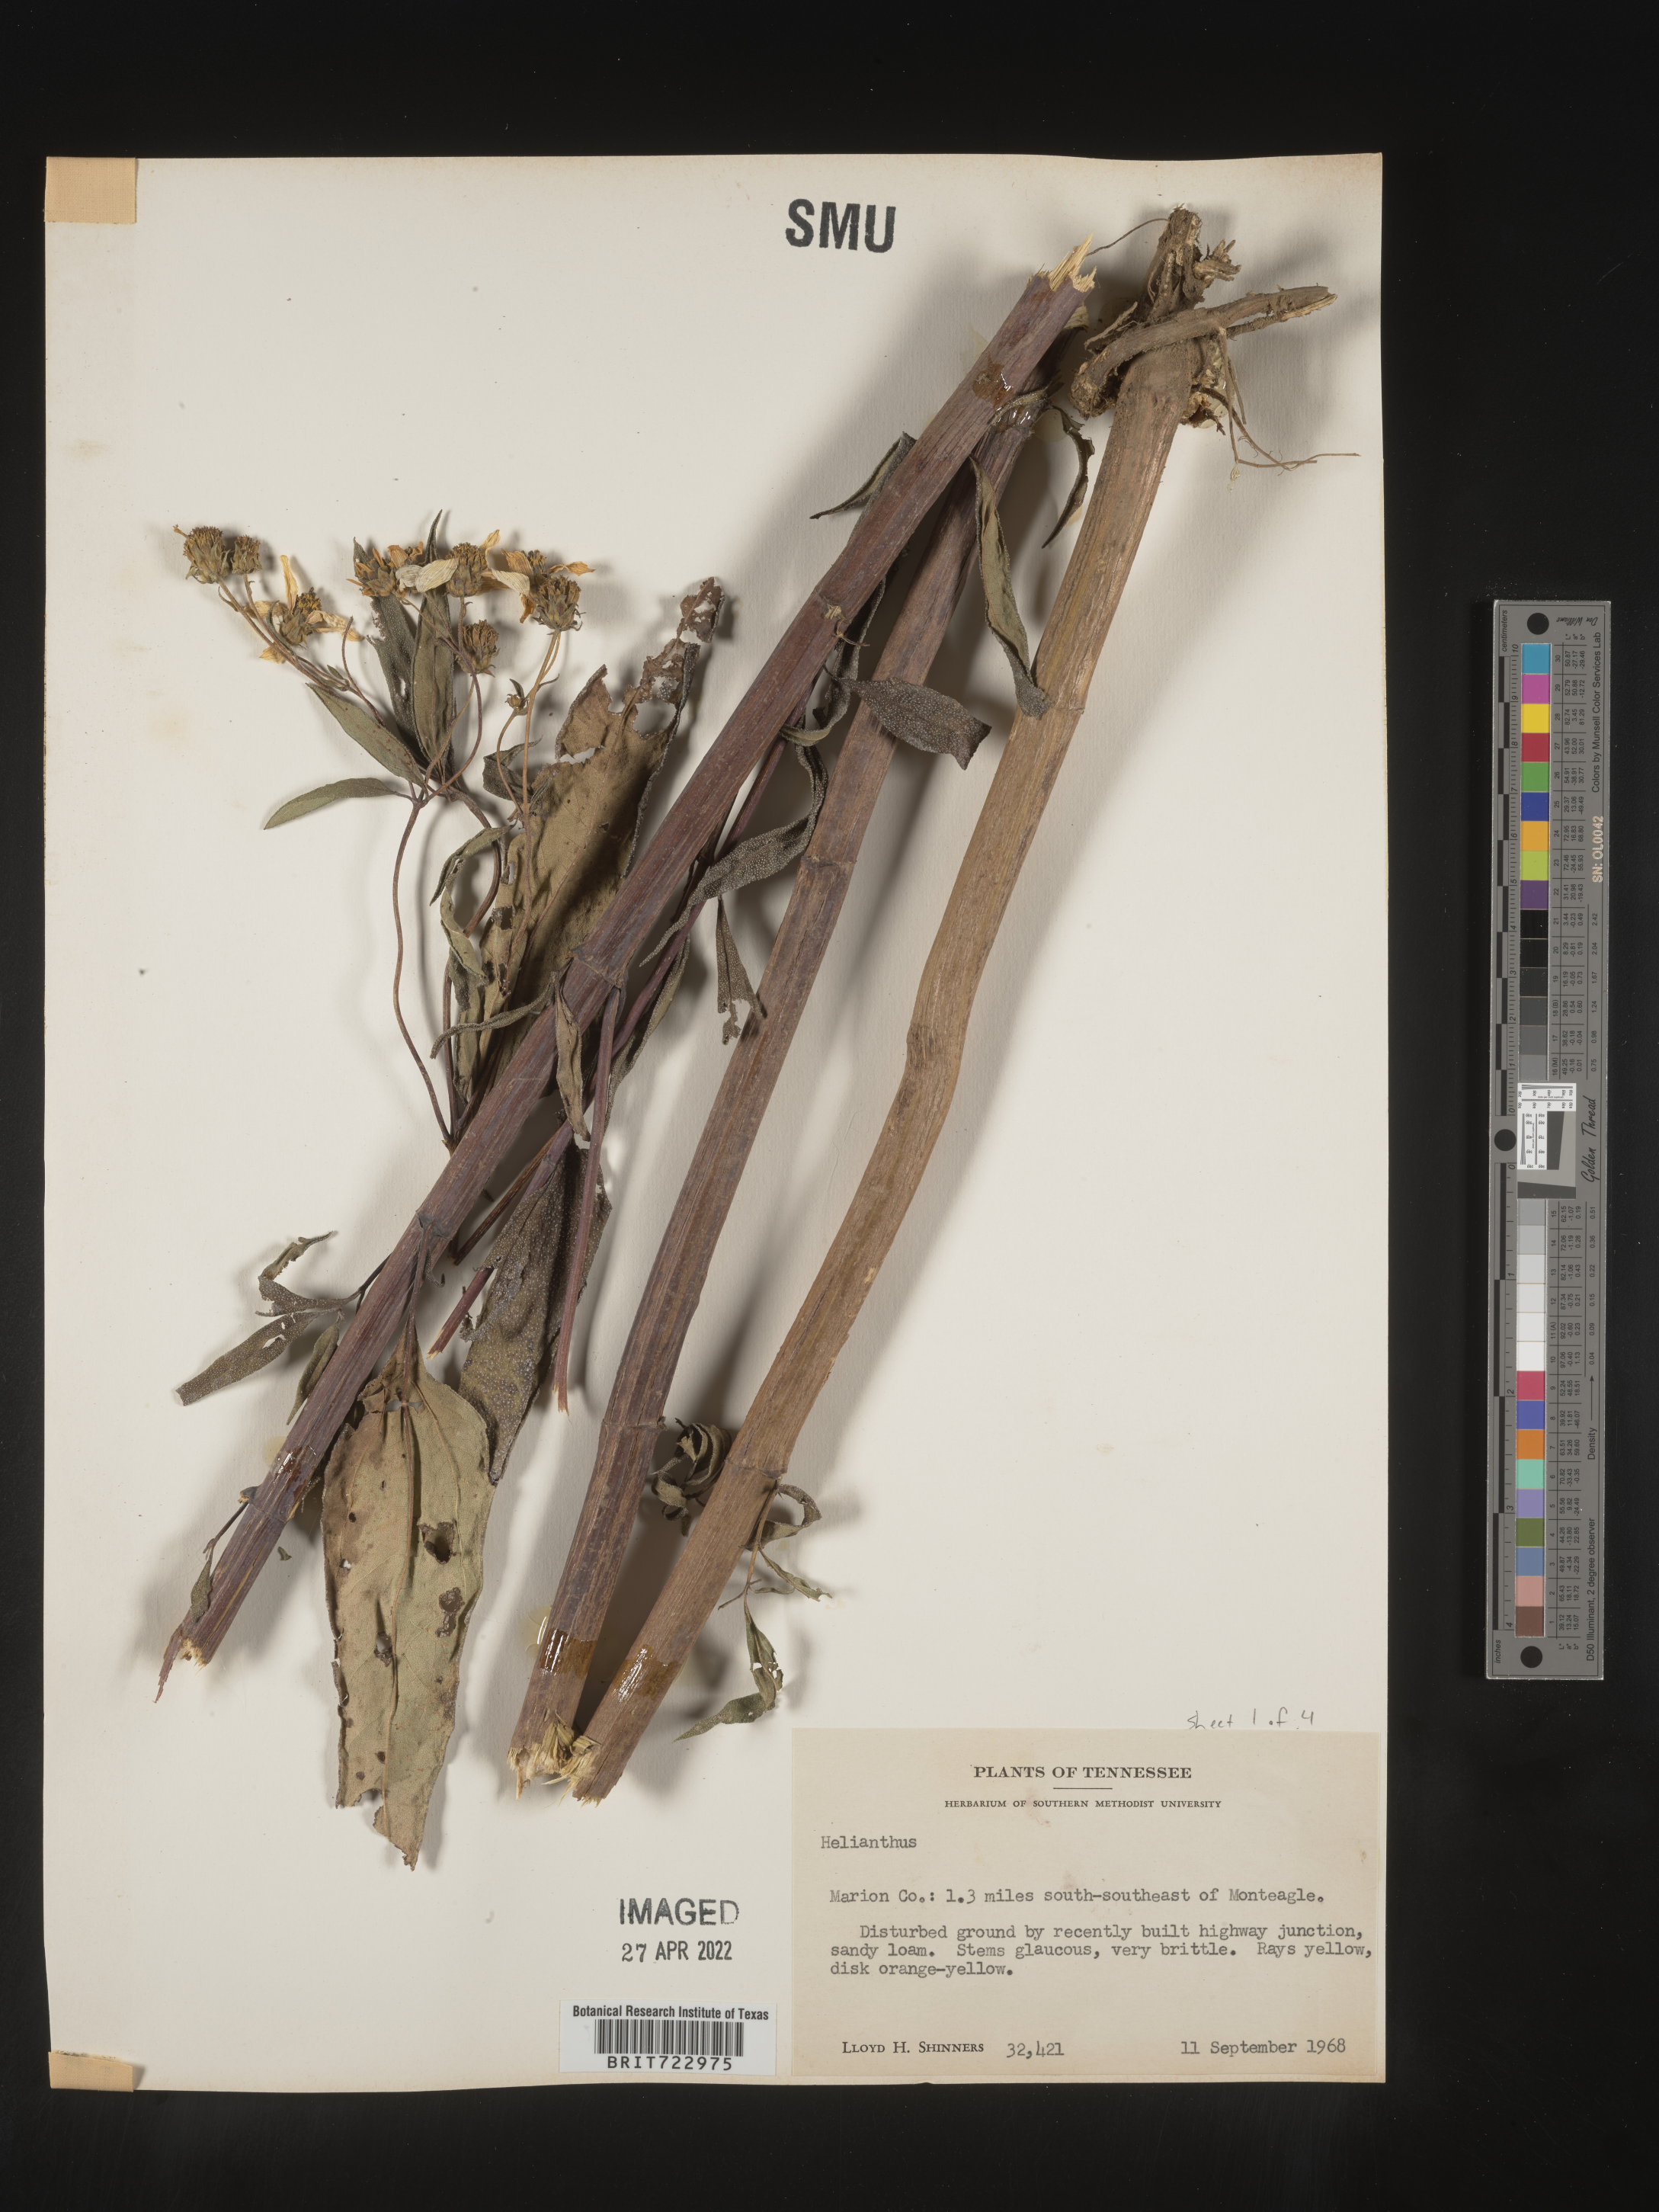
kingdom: Plantae
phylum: Tracheophyta
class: Magnoliopsida
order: Asterales
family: Asteraceae
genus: Helianthus
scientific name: Helianthus
